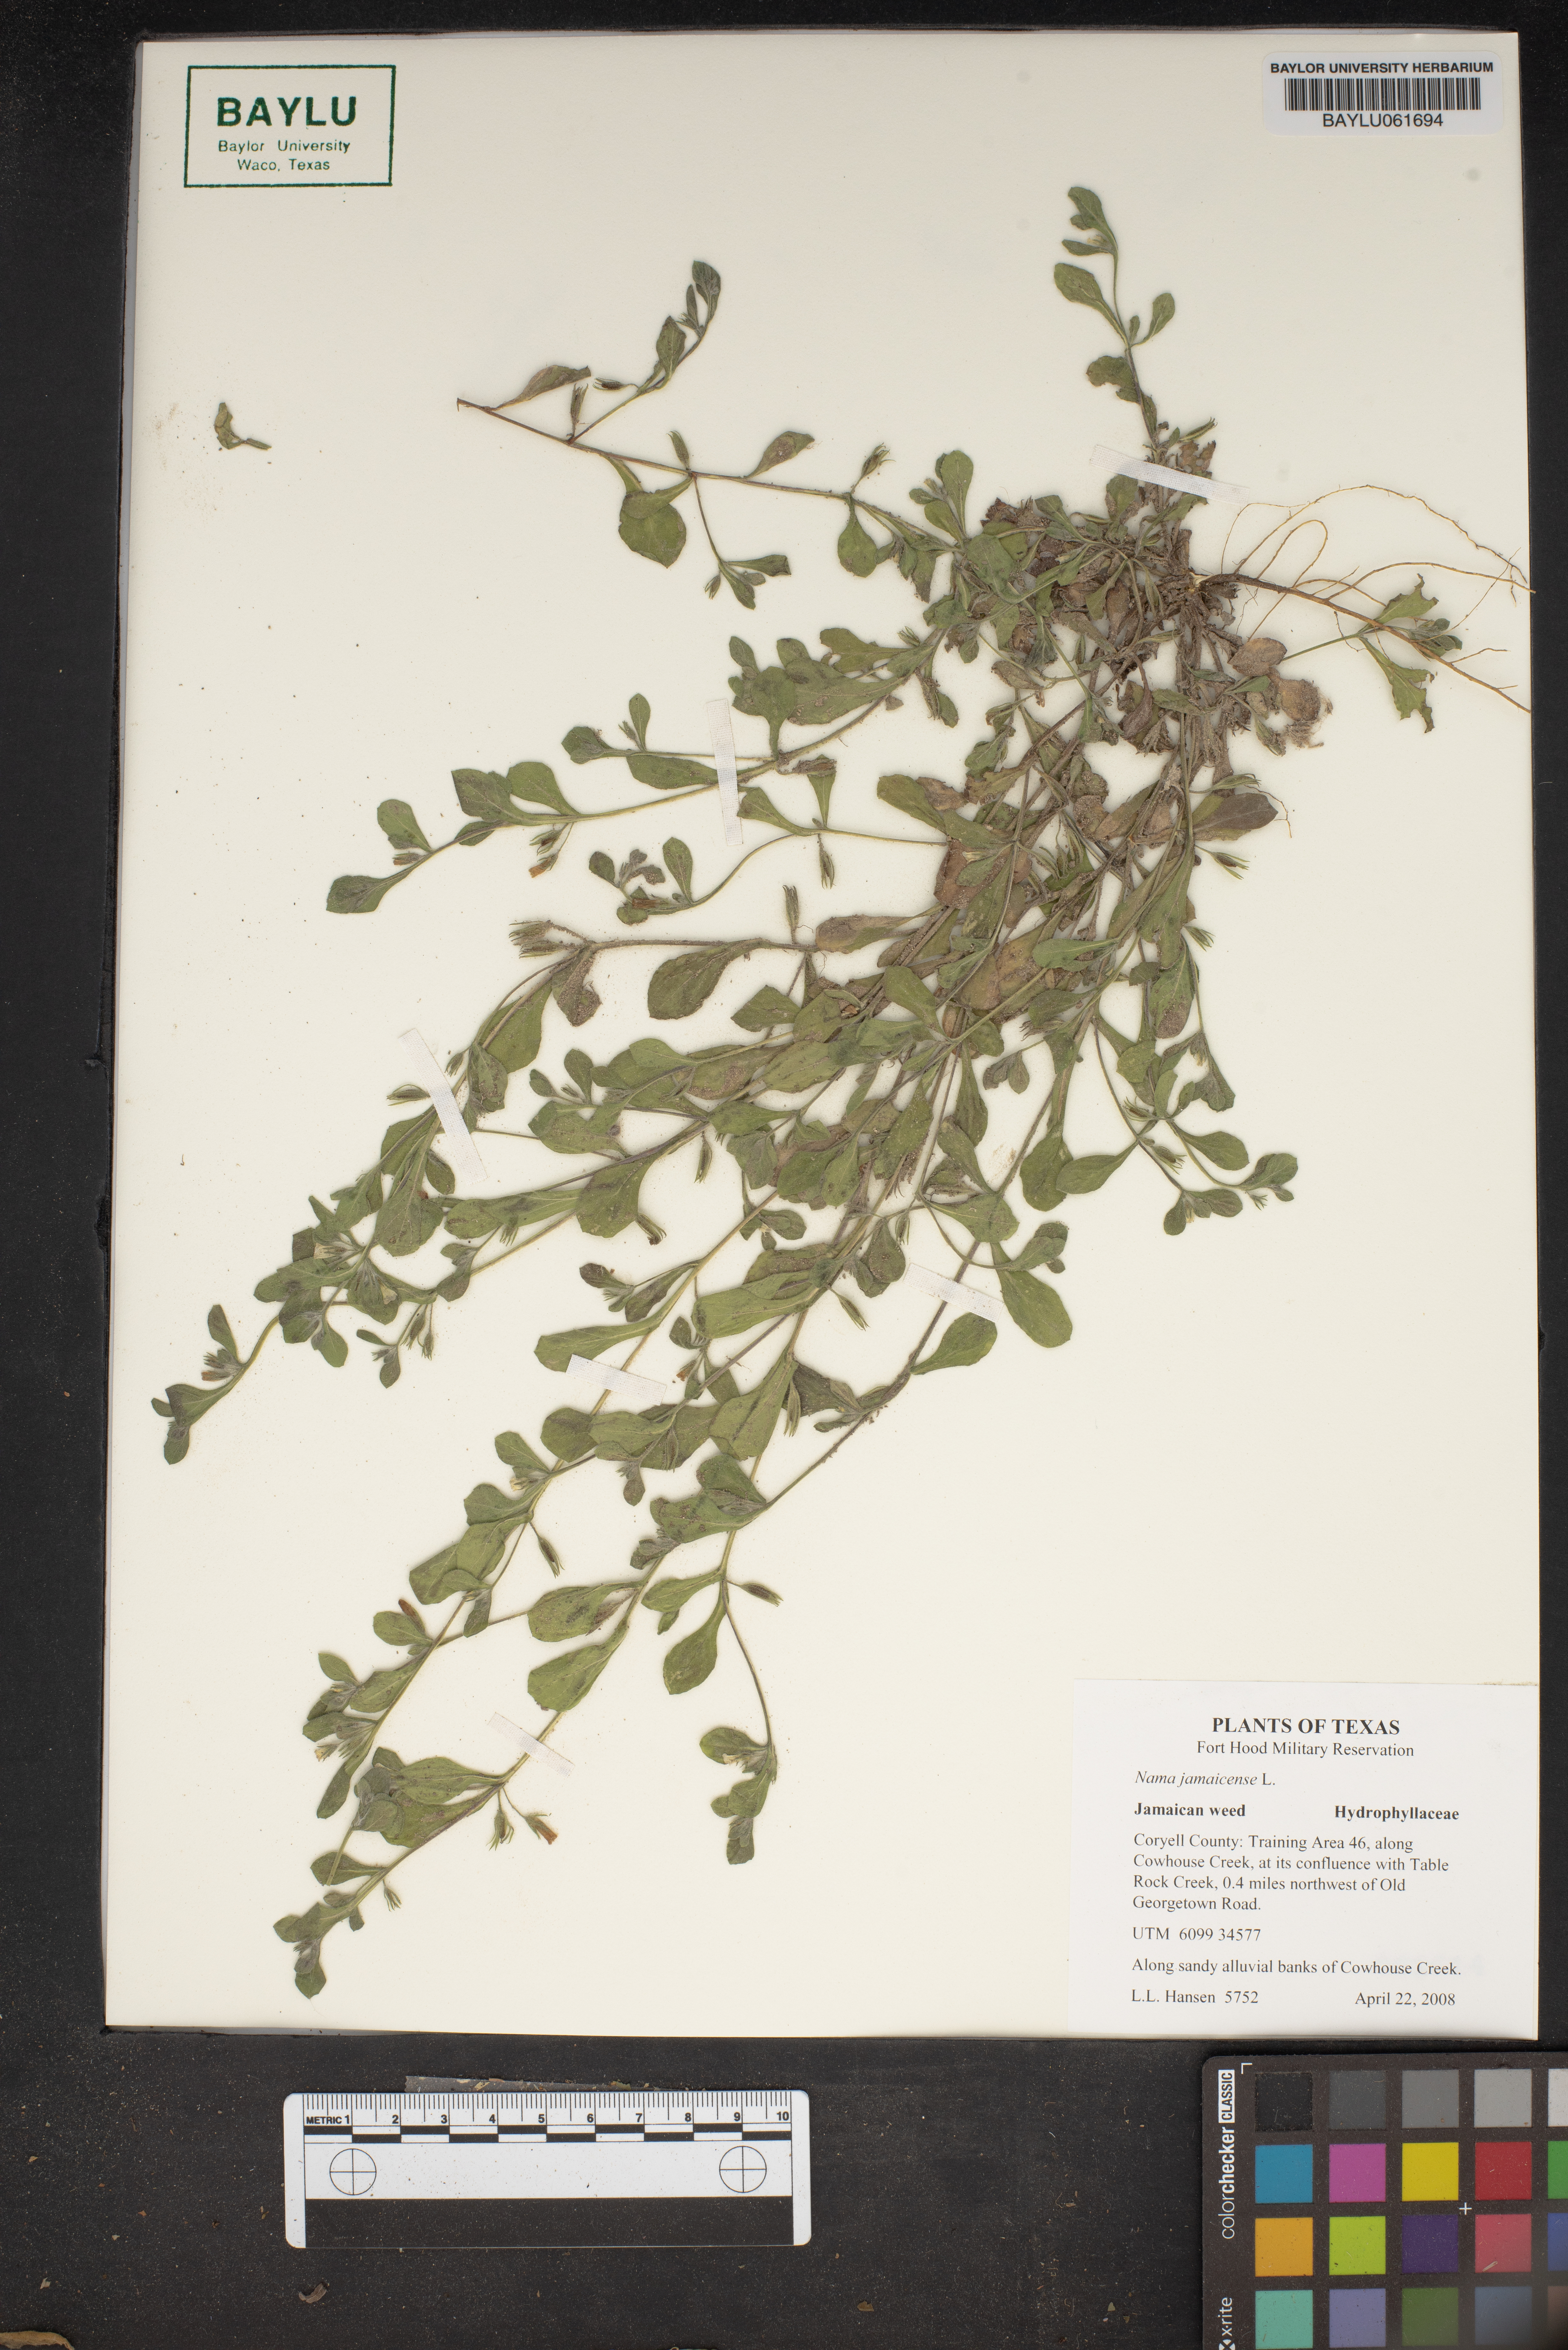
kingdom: Plantae
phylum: Tracheophyta
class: Magnoliopsida
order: Boraginales
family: Namaceae
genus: Nama
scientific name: Nama jamaicense
